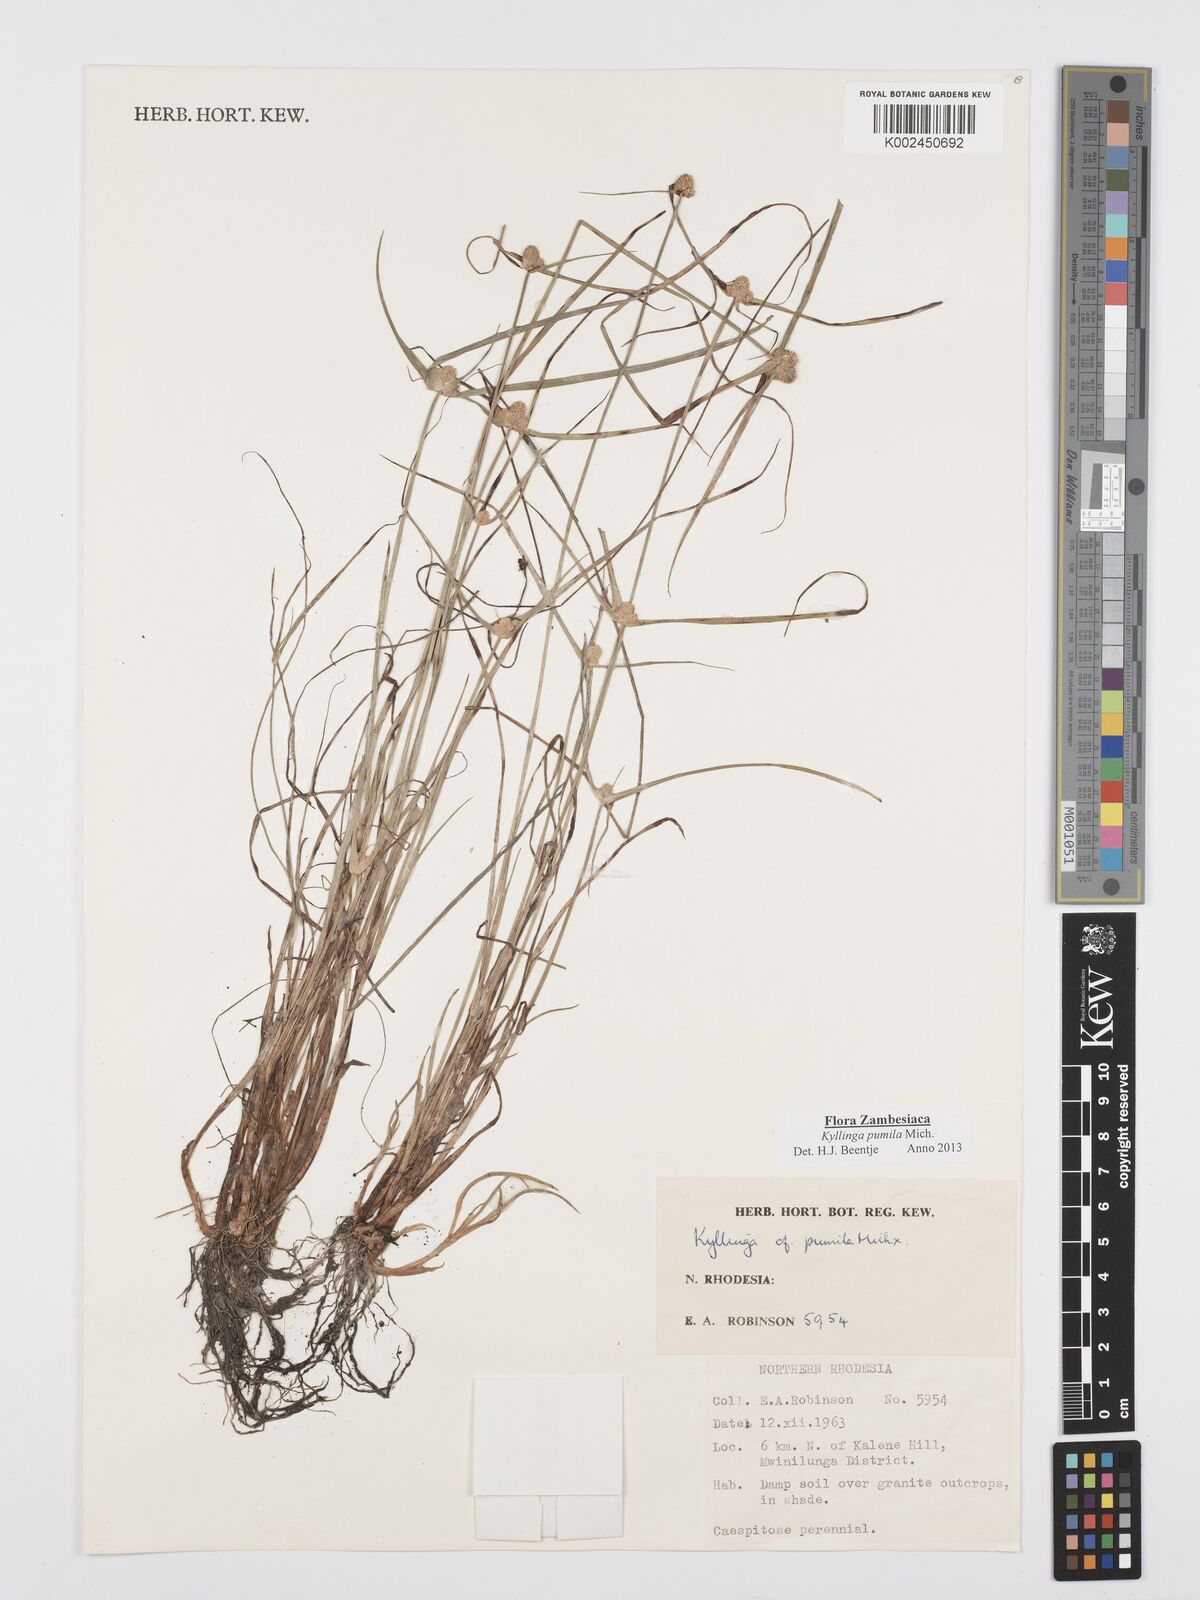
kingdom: Plantae
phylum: Tracheophyta
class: Liliopsida
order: Poales
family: Cyperaceae
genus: Cyperus
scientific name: Cyperus pumilus
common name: Low flatsedge
